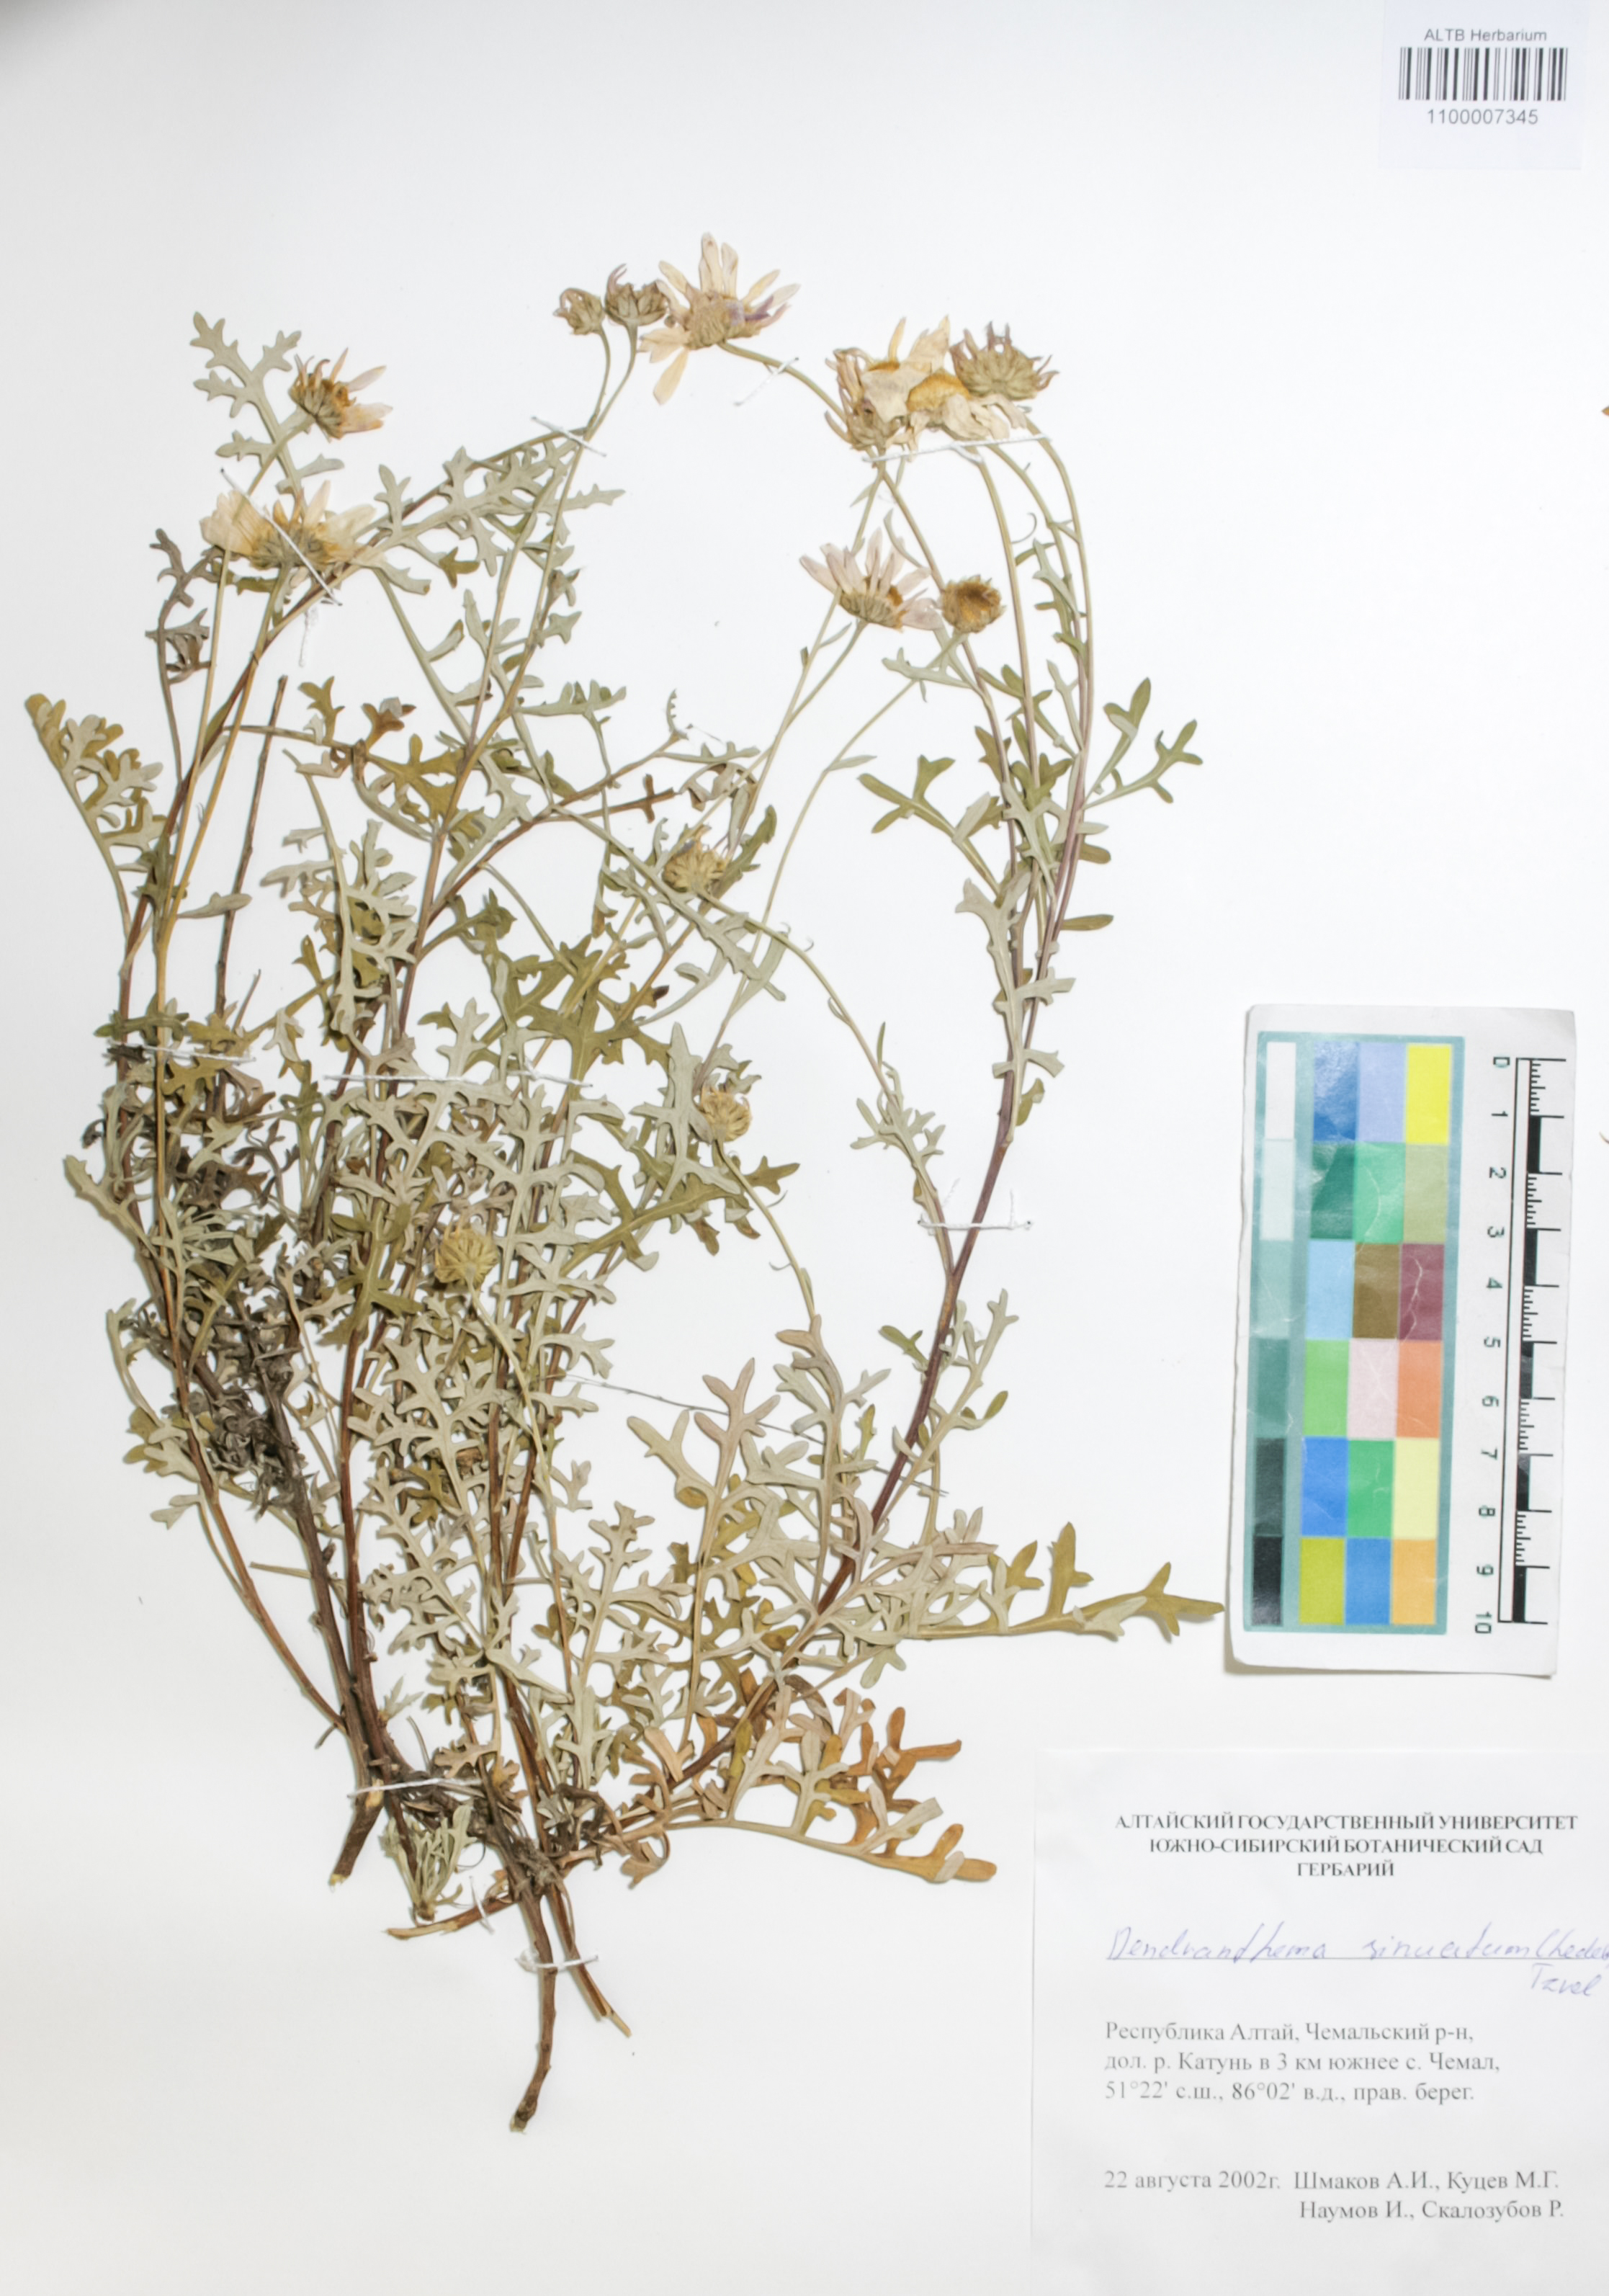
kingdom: Plantae
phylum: Tracheophyta
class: Magnoliopsida
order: Asterales
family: Asteraceae
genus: Chrysanthemum
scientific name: Chrysanthemum sinuatum
